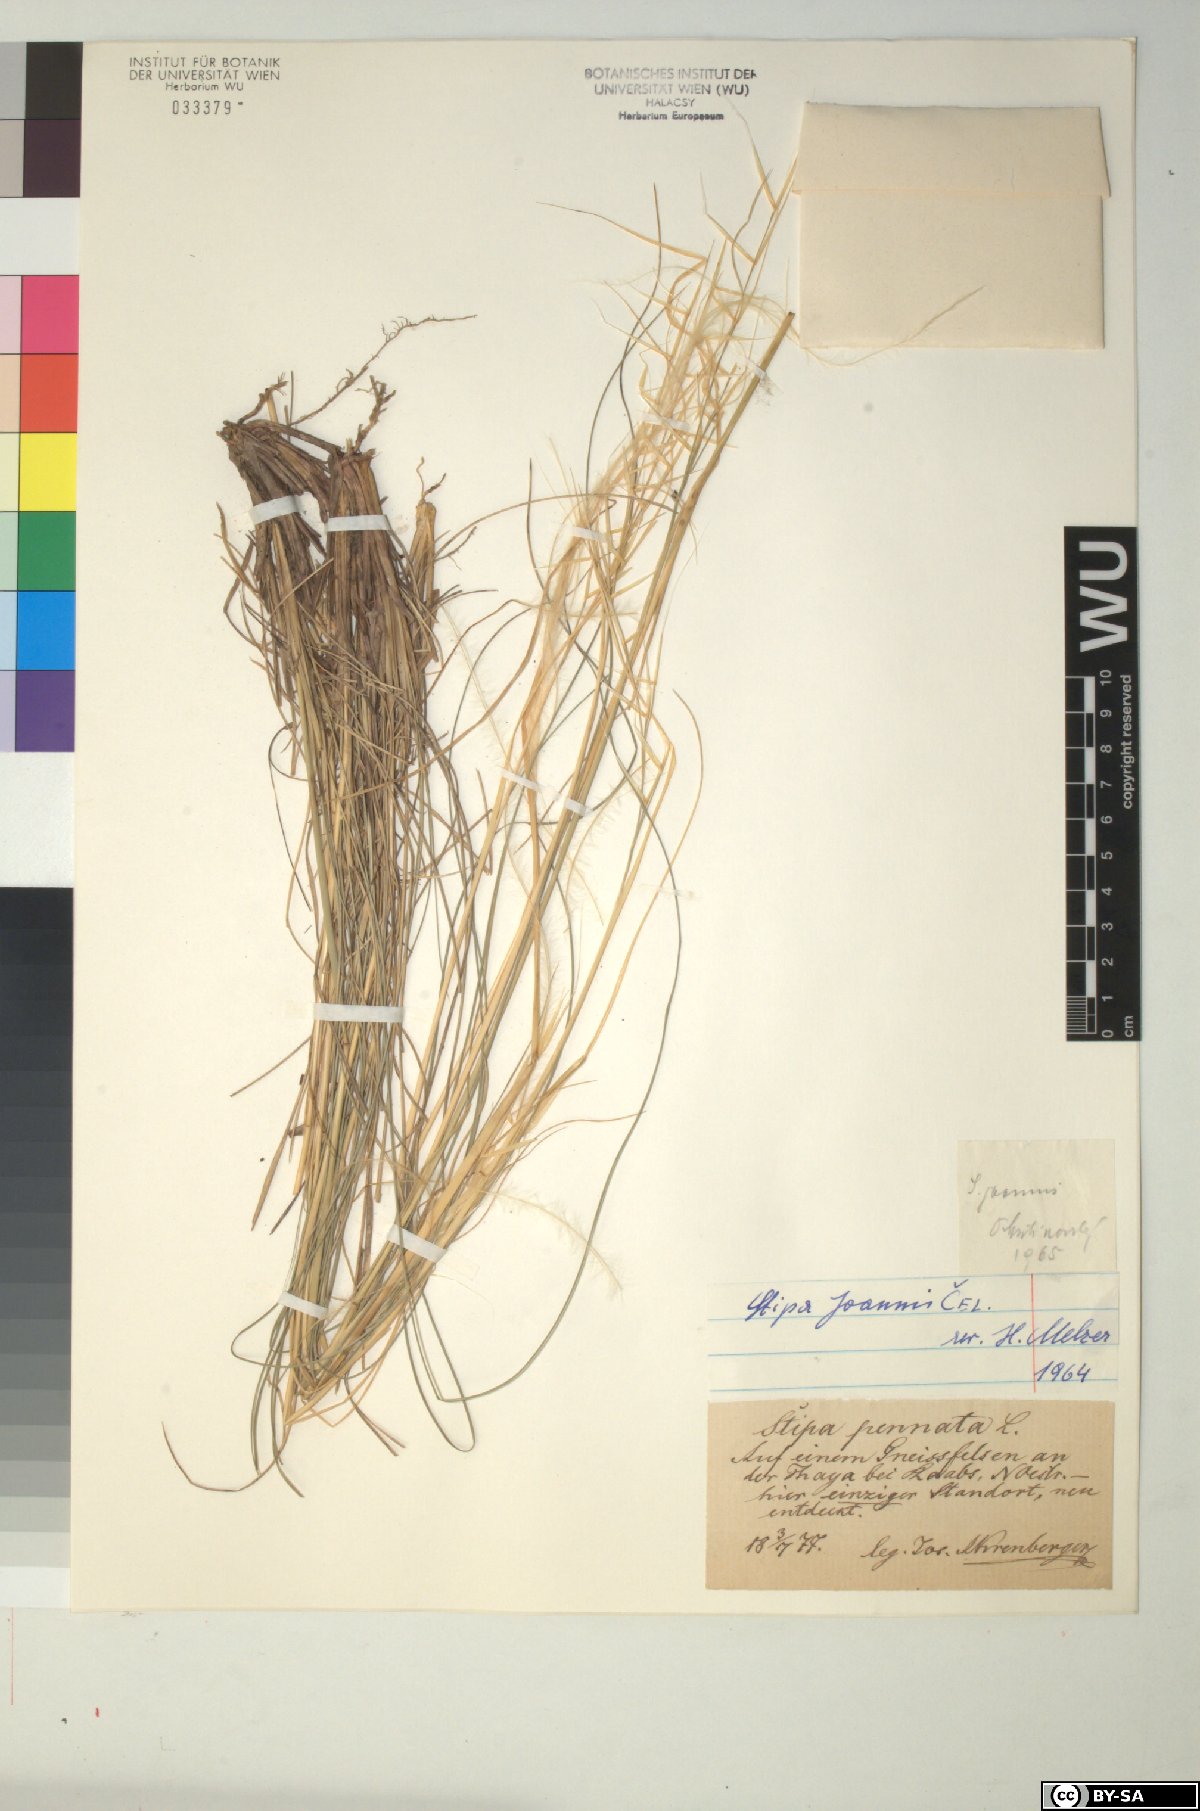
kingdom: Plantae
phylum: Tracheophyta
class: Liliopsida
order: Poales
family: Poaceae
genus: Stipa
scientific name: Stipa pennata
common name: European feather grass
